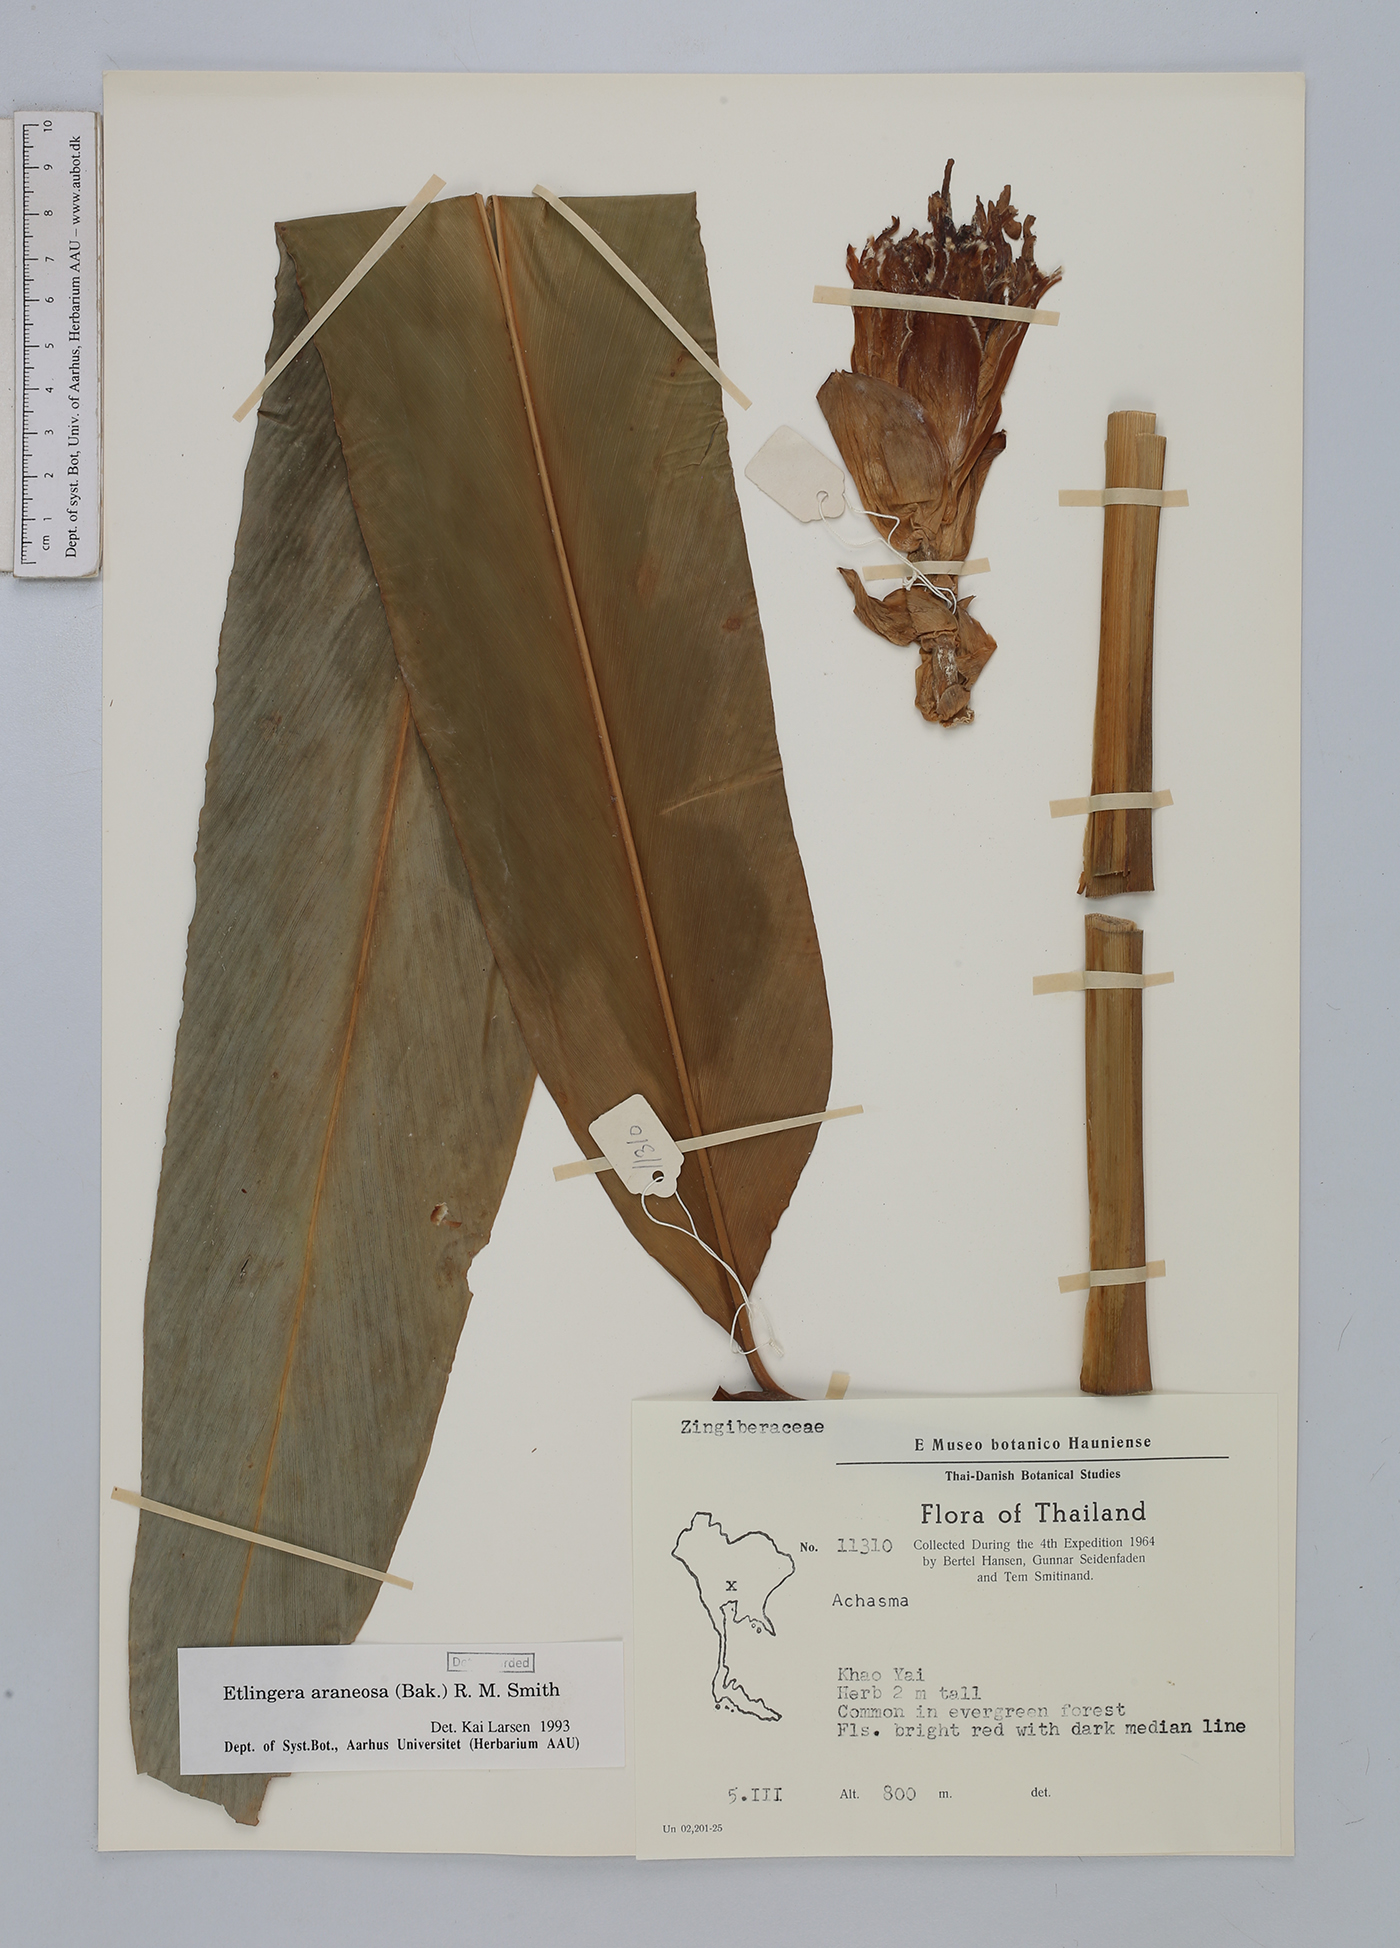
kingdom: Plantae
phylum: Tracheophyta
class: Liliopsida
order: Zingiberales
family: Zingiberaceae
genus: Etlingera
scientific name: Etlingera araneosa
